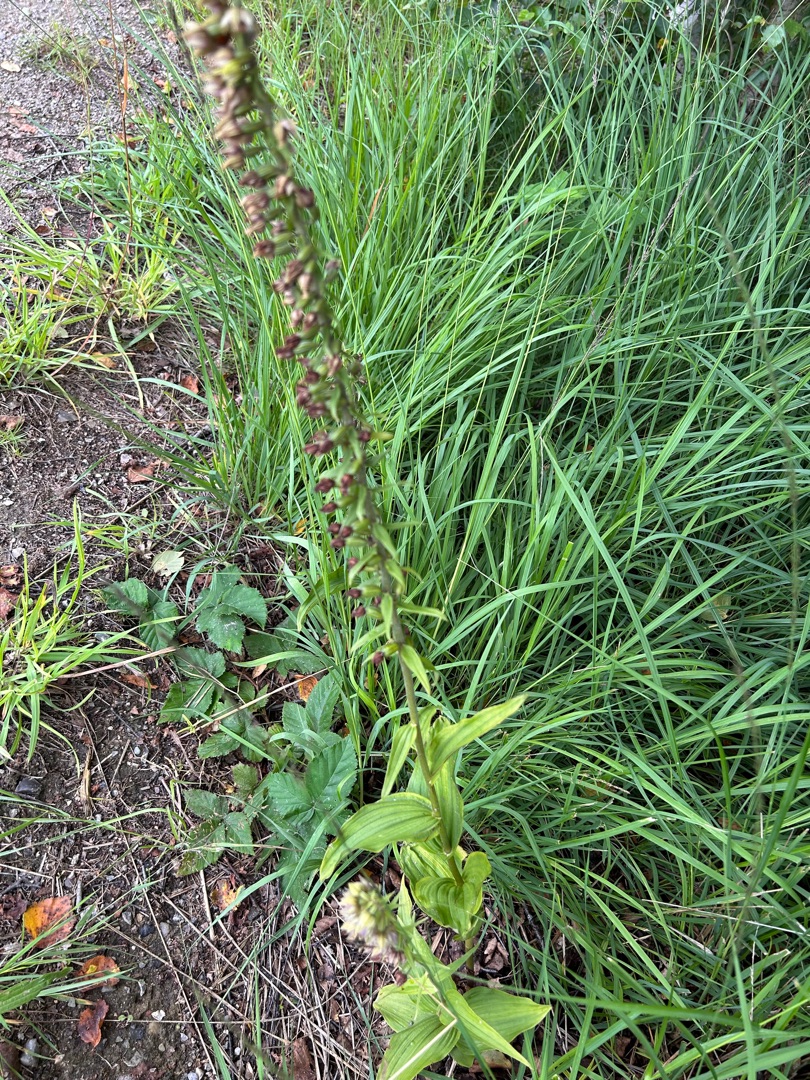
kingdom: Plantae
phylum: Tracheophyta
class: Liliopsida
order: Asparagales
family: Orchidaceae
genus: Epipactis
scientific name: Epipactis helleborine
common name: Skov-hullæbe
